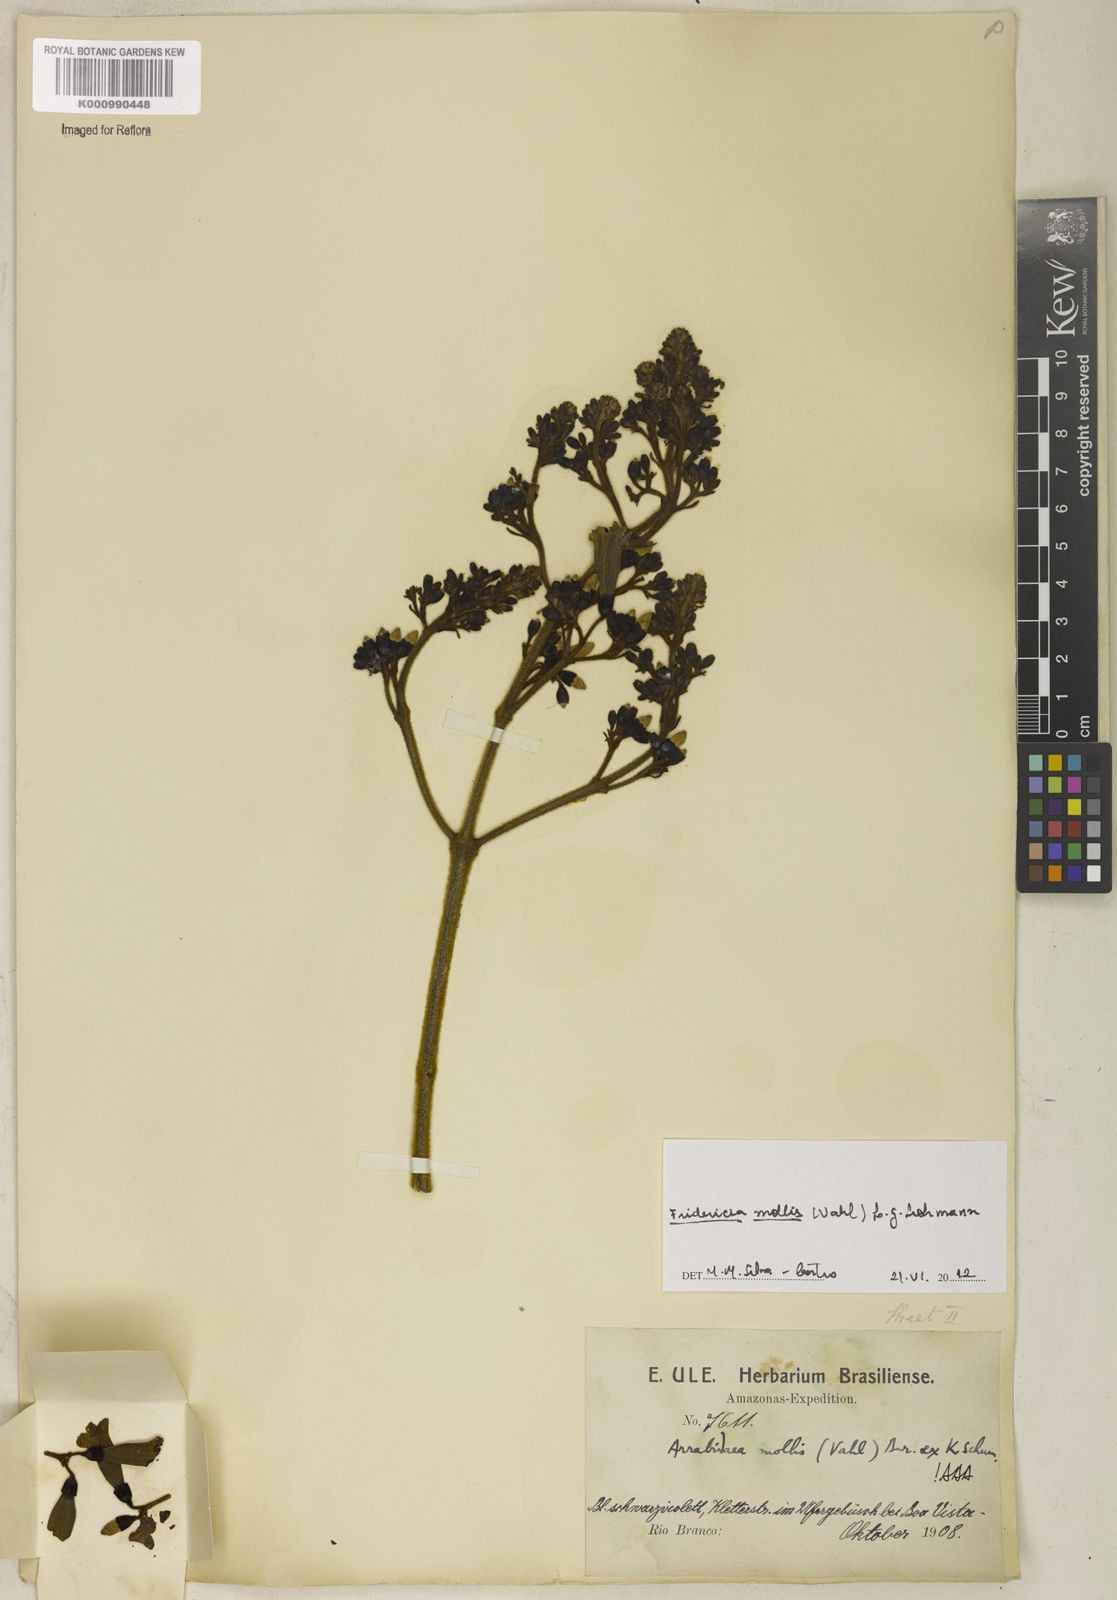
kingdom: Plantae
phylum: Tracheophyta
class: Magnoliopsida
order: Lamiales
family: Bignoniaceae
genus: Fridericia
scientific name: Fridericia mollis
